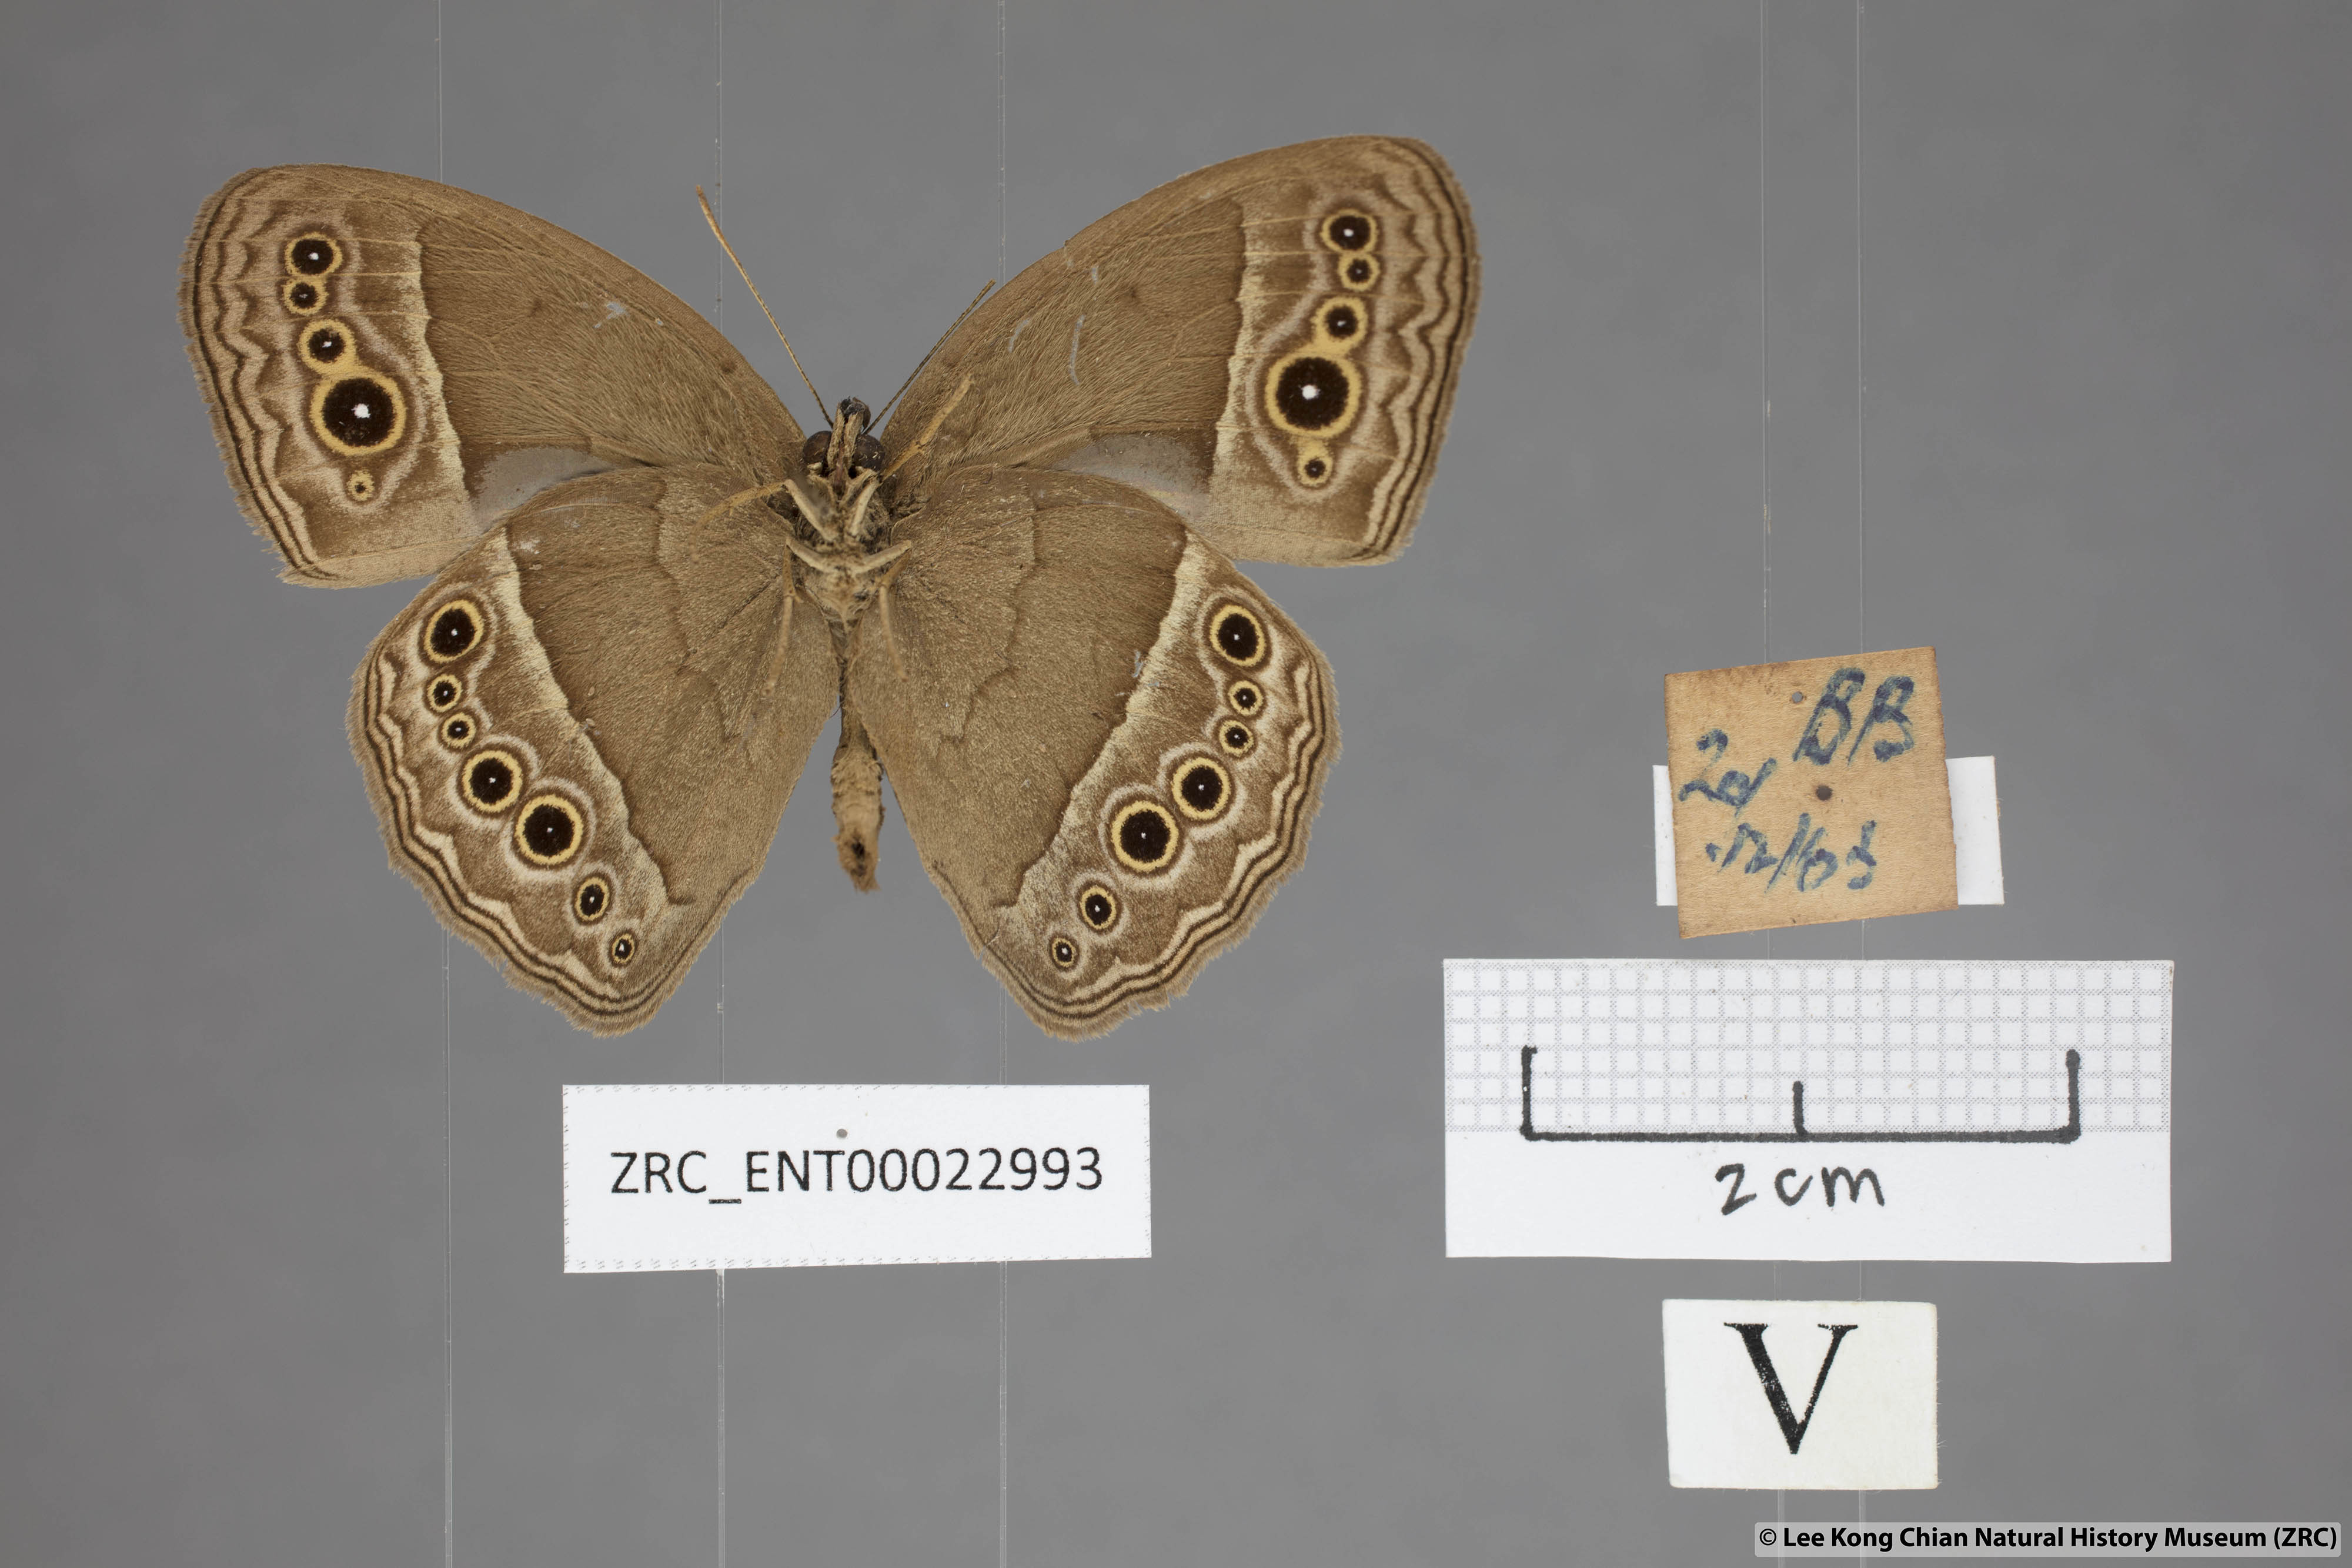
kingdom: Animalia
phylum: Arthropoda
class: Insecta
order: Lepidoptera
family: Nymphalidae
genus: Mycalesis
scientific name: Mycalesis perseoides
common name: Burmese bushbrown
